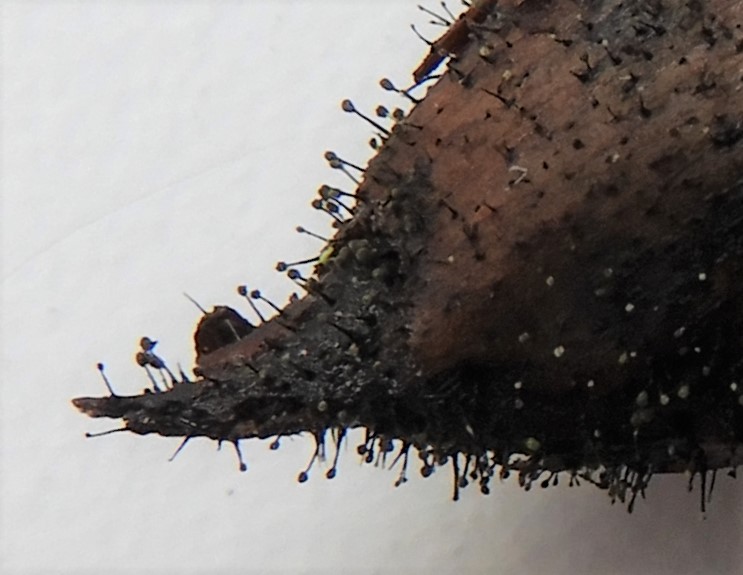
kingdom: Fungi
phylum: Ascomycota
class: Dothideomycetes
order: Pleosporales
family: Melanommataceae
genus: Seifertia
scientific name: Seifertia azaleae
